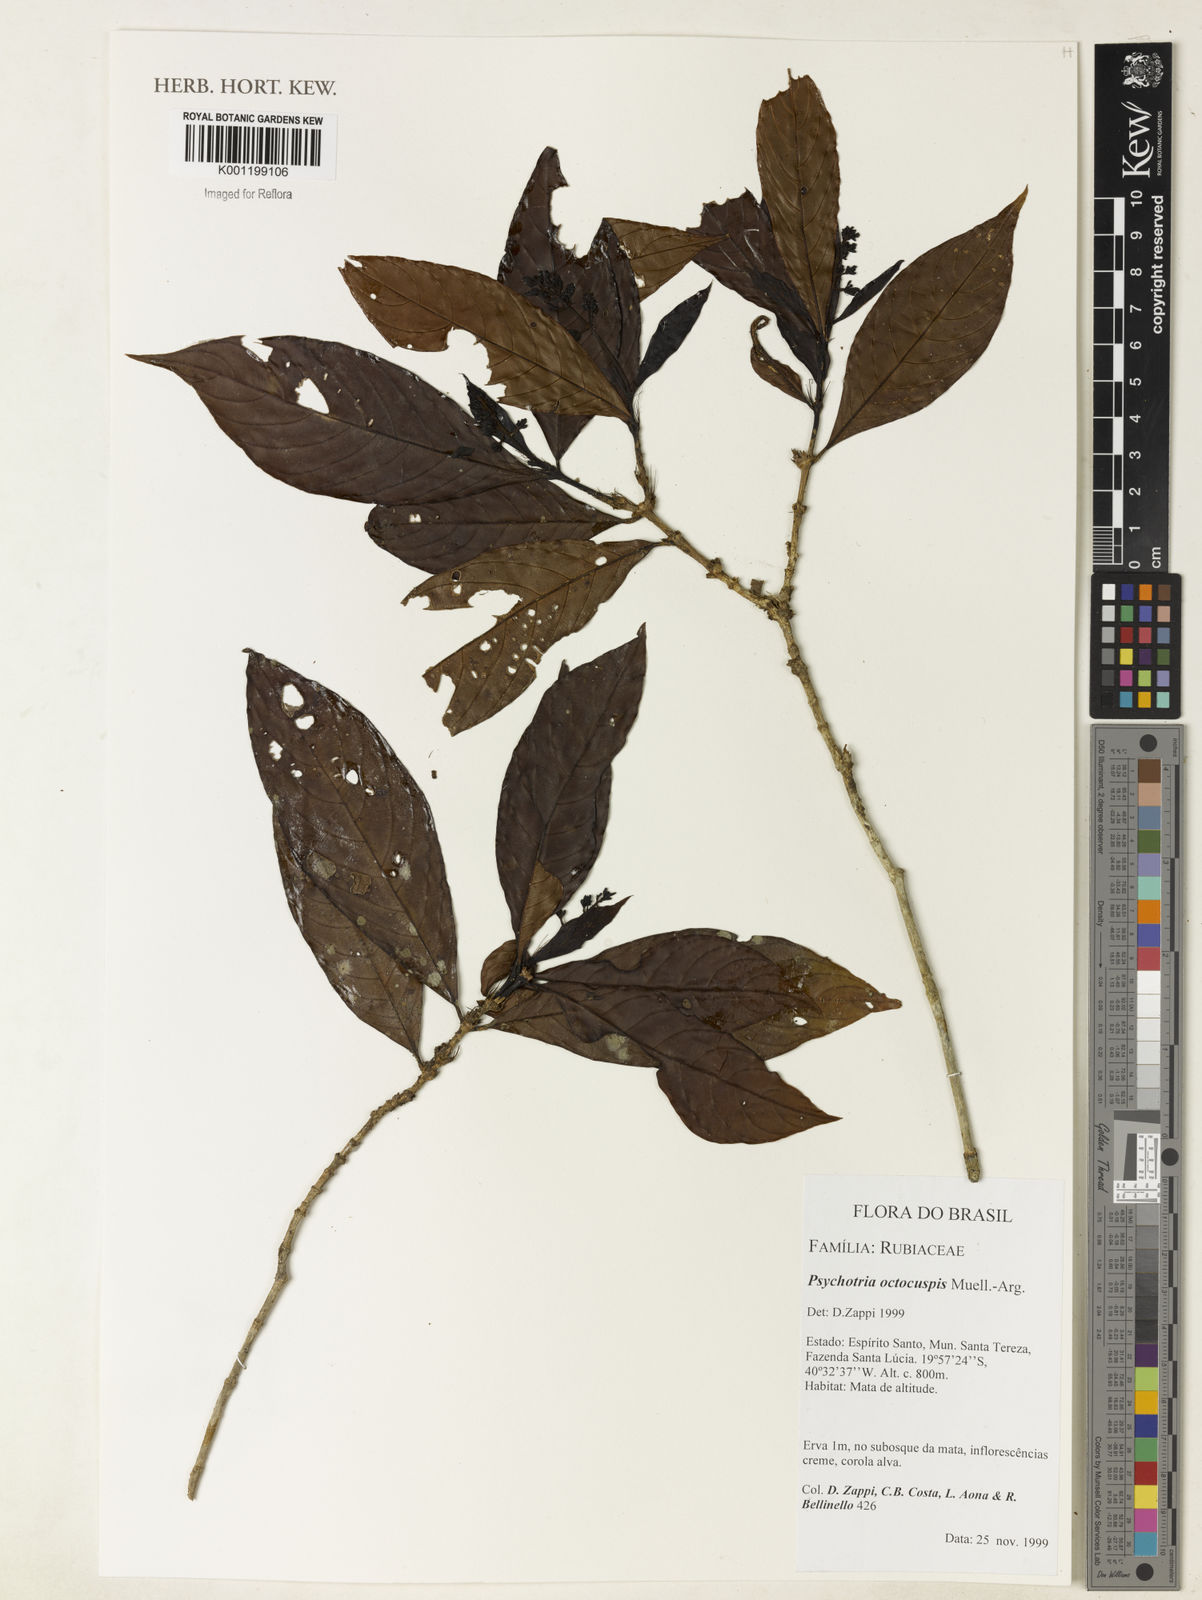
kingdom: Plantae
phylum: Tracheophyta
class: Magnoliopsida
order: Gentianales
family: Rubiaceae
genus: Psychotria
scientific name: Psychotria
